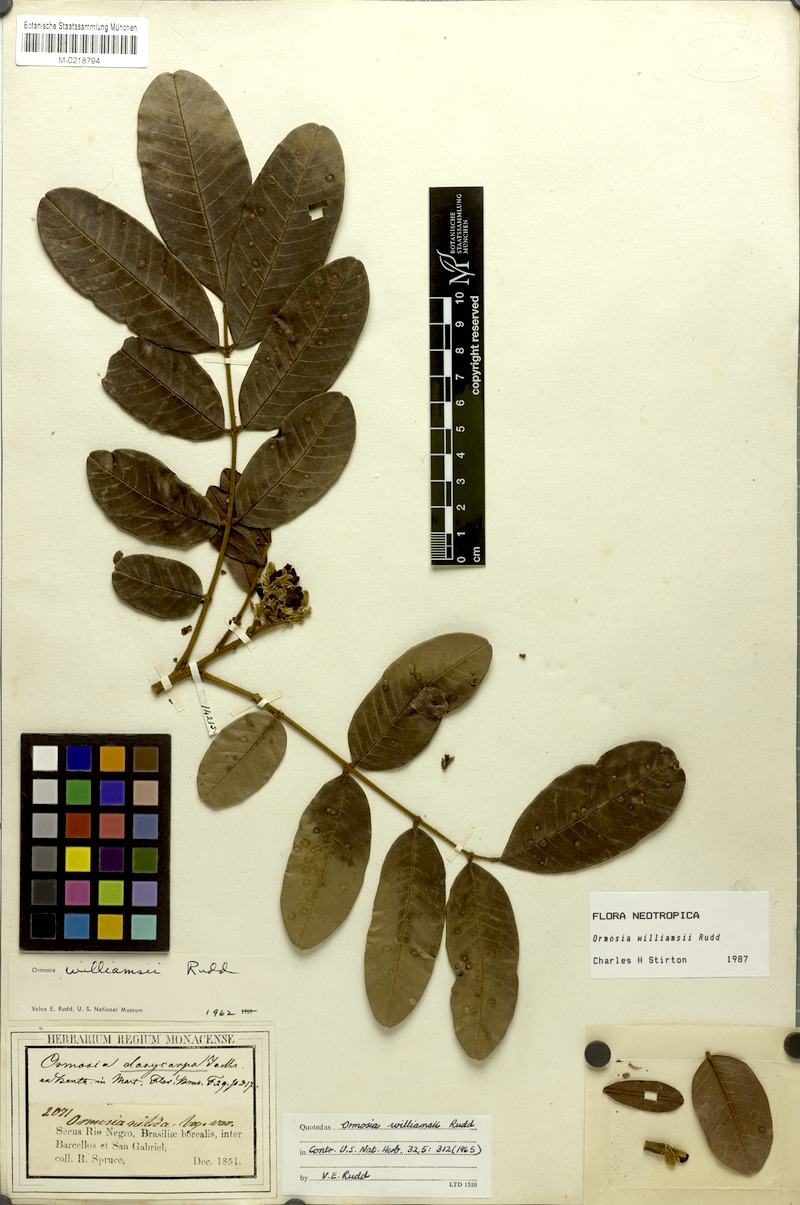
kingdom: Plantae
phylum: Tracheophyta
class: Magnoliopsida
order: Fabales
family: Fabaceae
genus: Ormosia
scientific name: Ormosia williamsii
